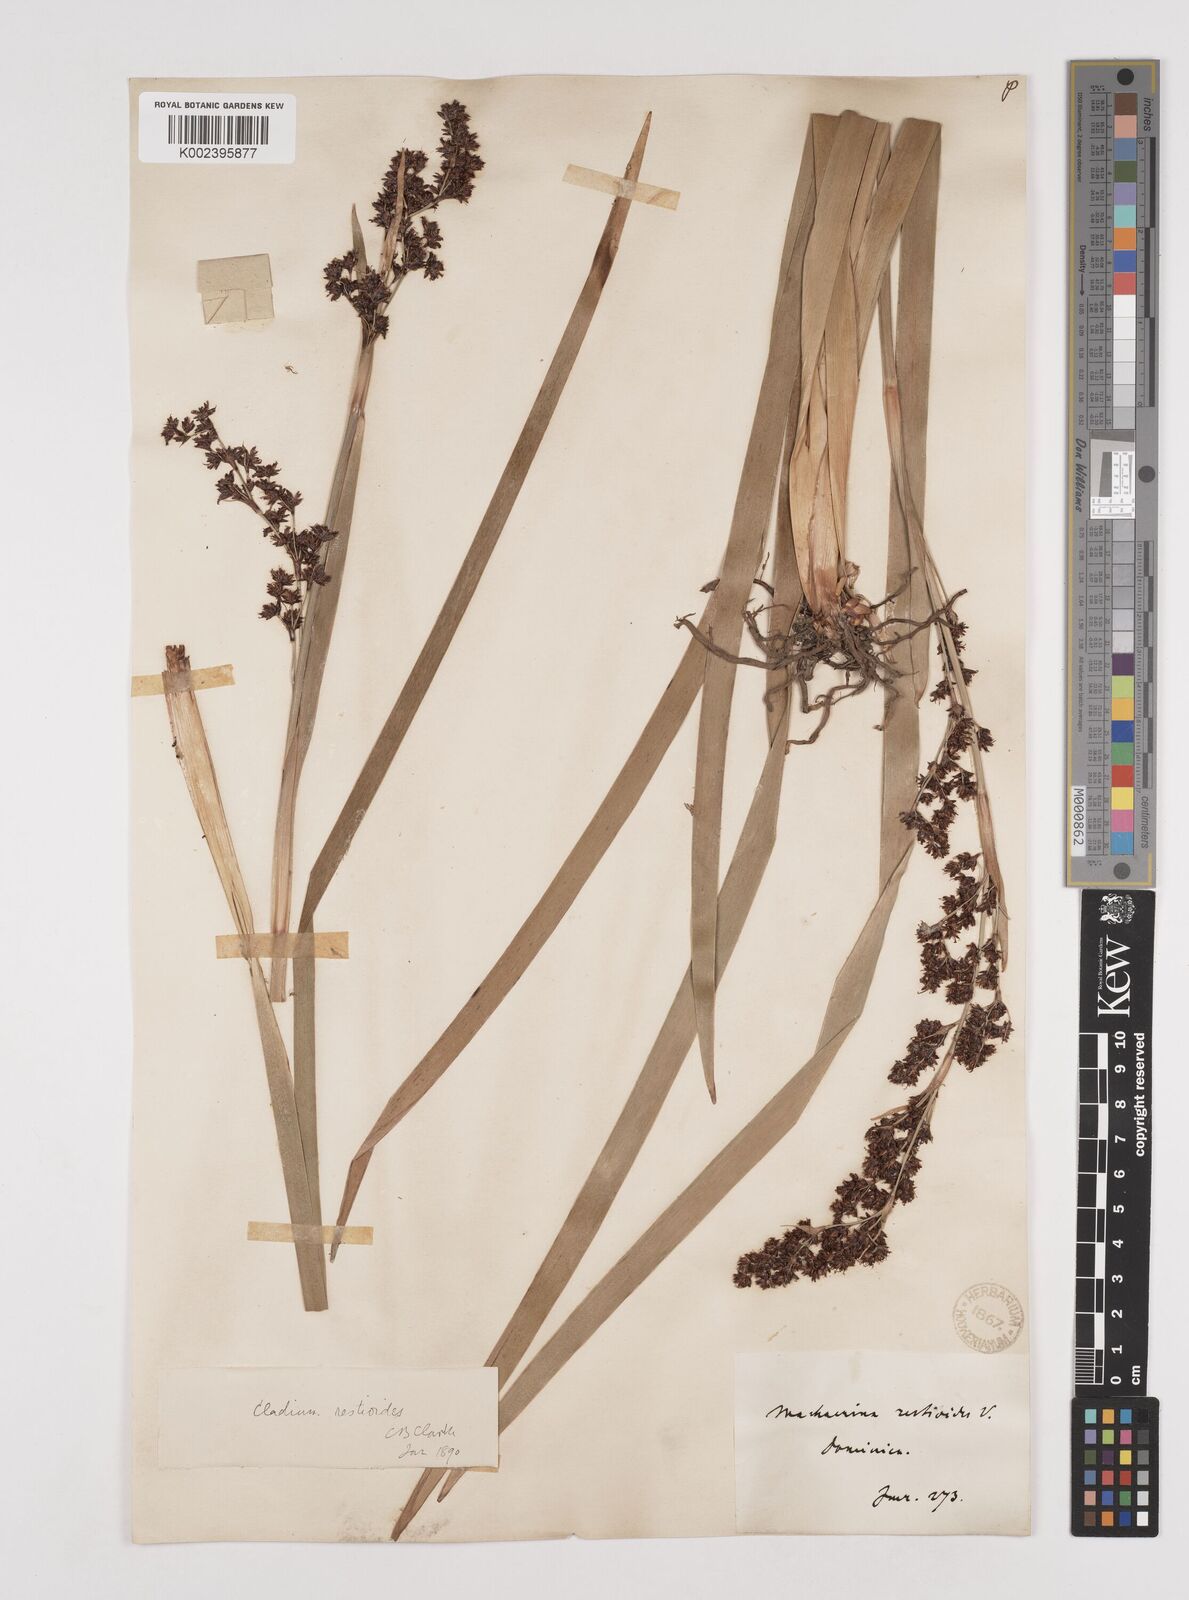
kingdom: Plantae
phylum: Tracheophyta
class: Liliopsida
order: Poales
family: Cyperaceae
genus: Machaerina
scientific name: Machaerina restioides
